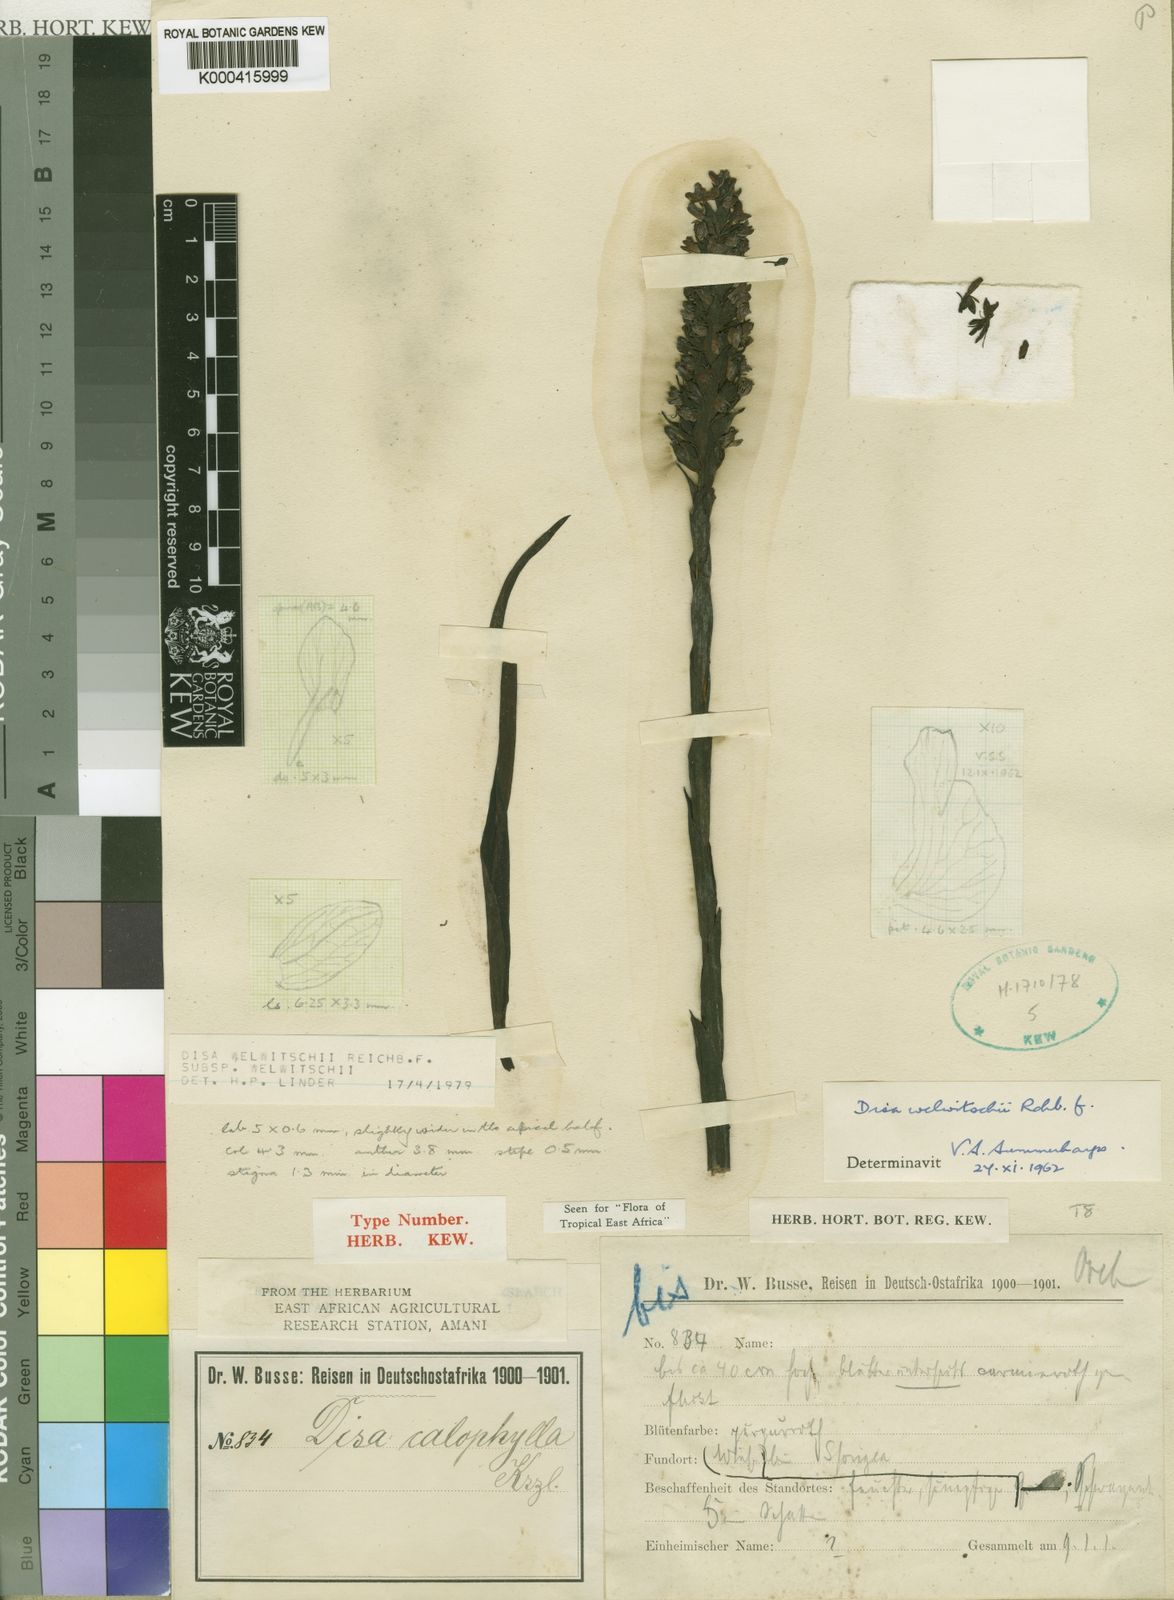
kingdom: Plantae
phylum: Tracheophyta
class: Liliopsida
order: Asparagales
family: Orchidaceae
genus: Disa
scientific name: Disa welwitschii
